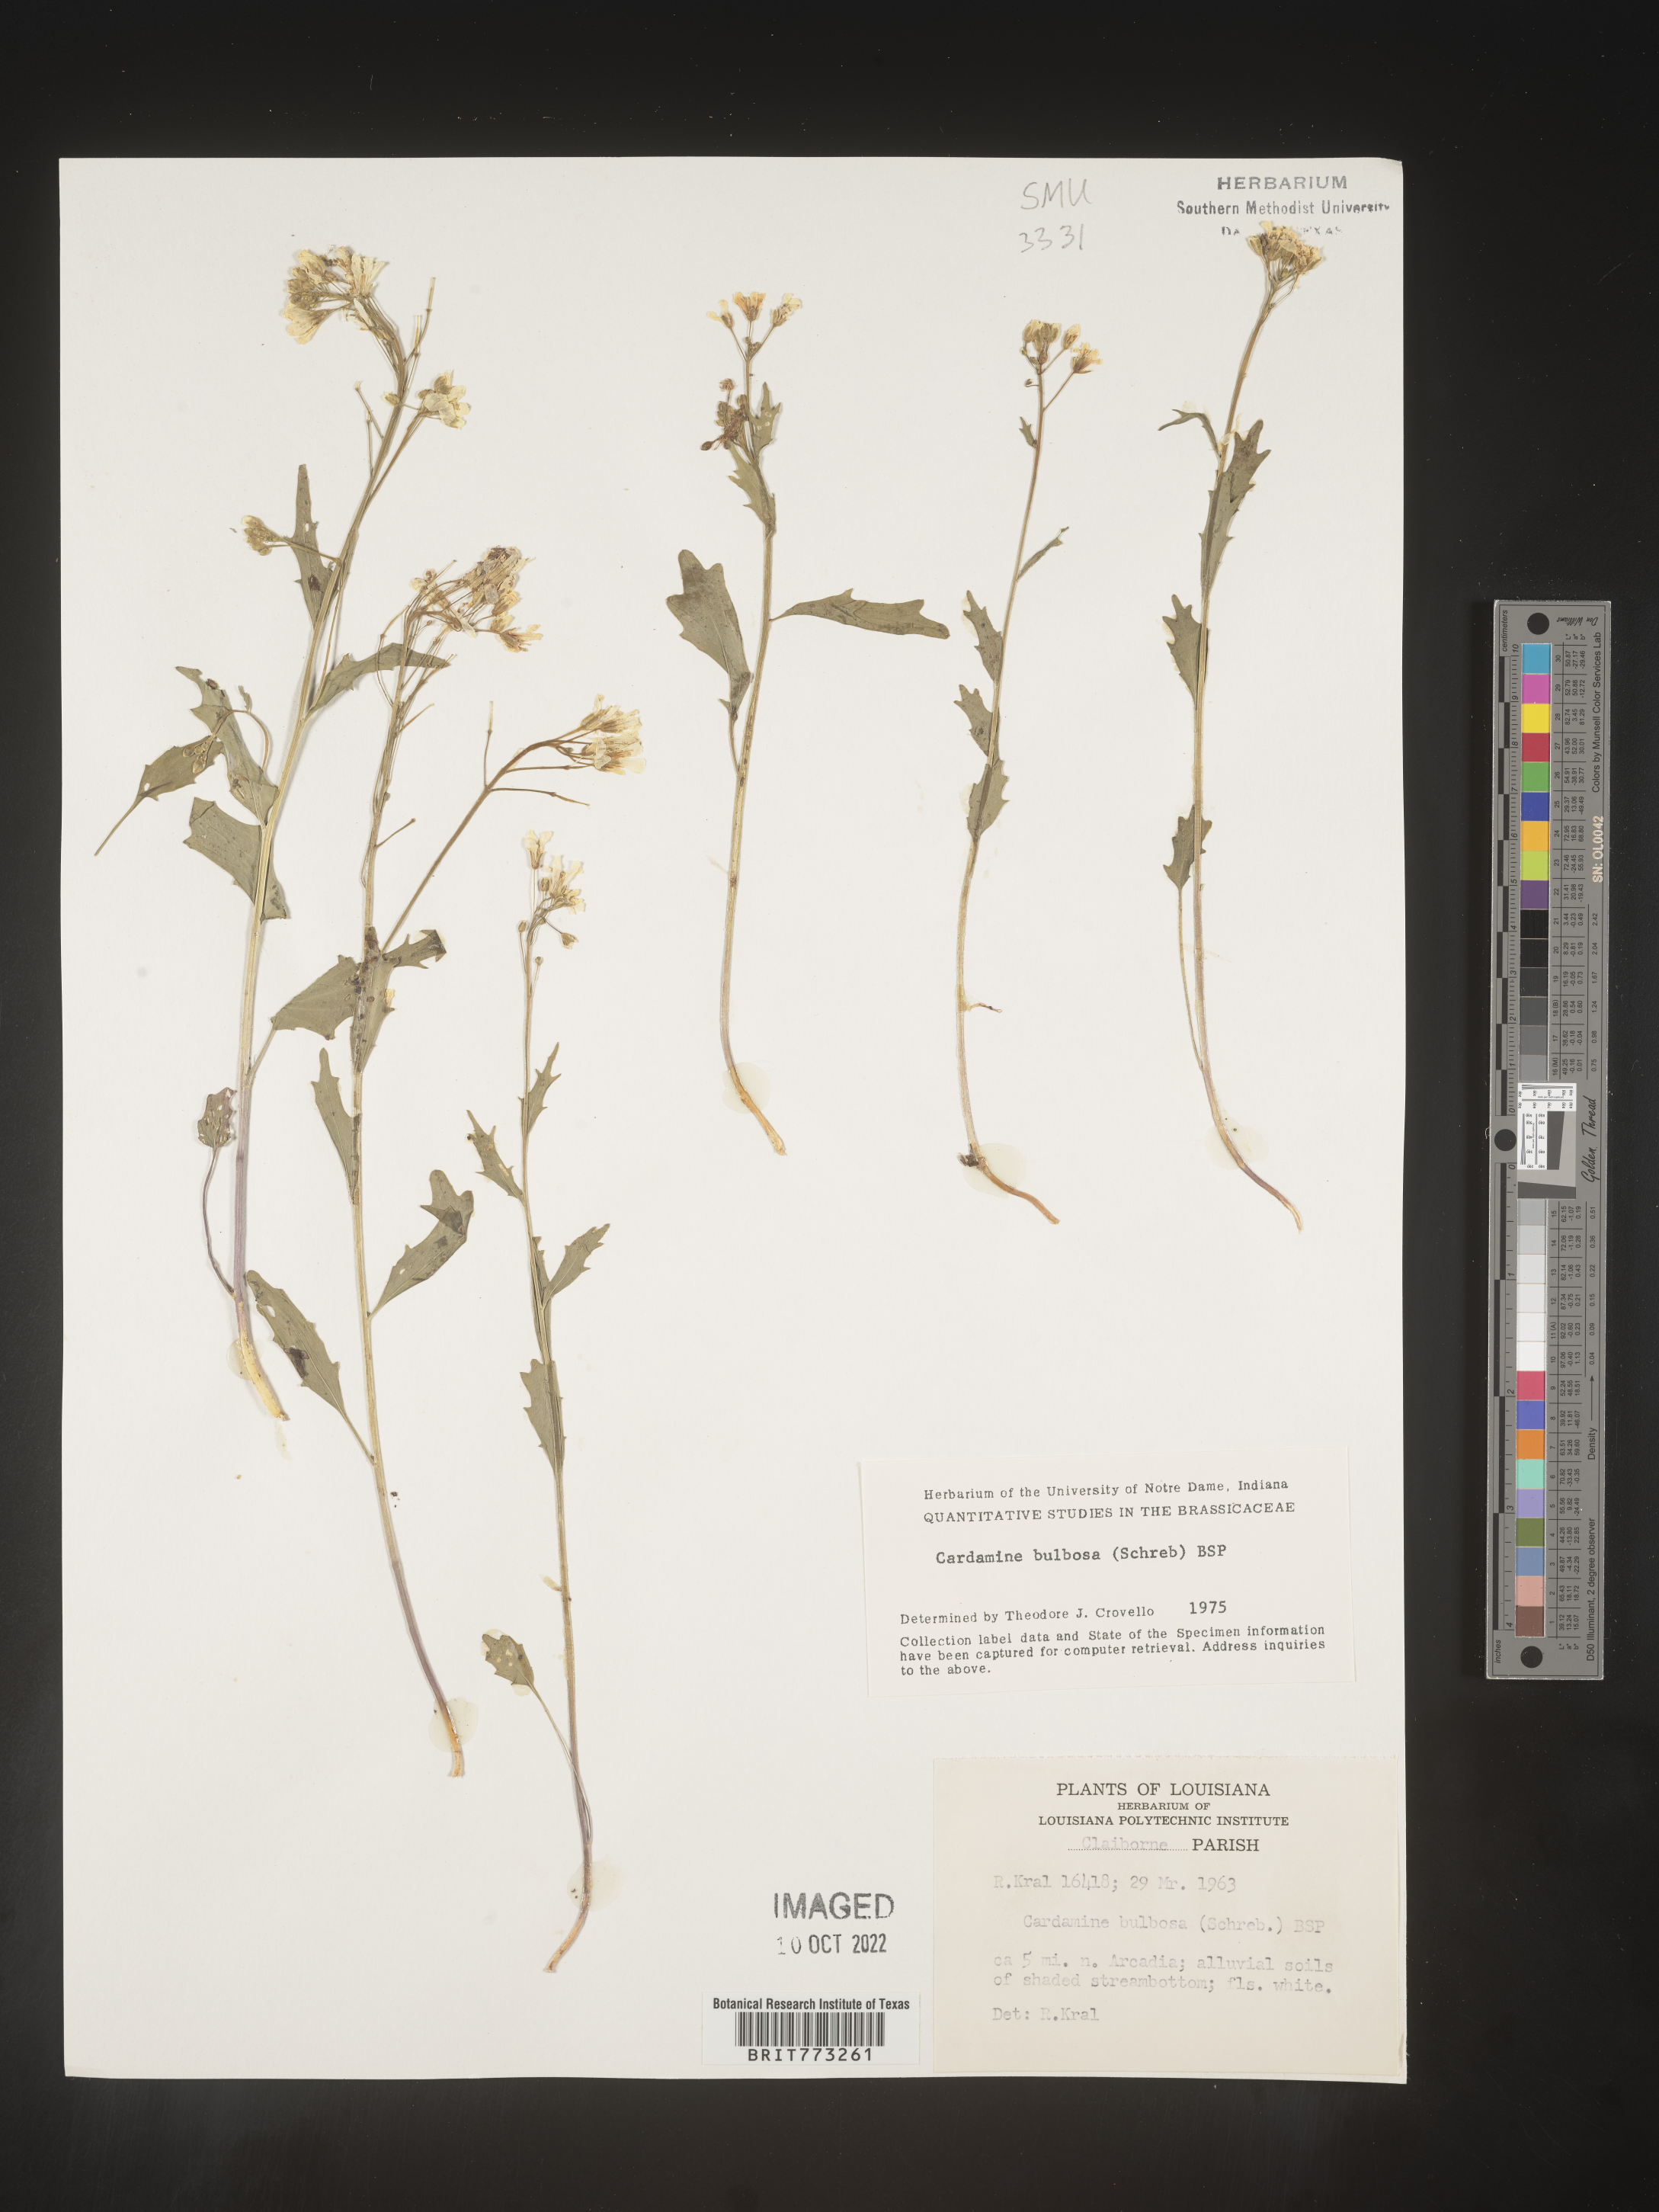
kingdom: Plantae
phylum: Tracheophyta
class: Magnoliopsida
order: Brassicales
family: Brassicaceae
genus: Cardamine
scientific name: Cardamine bulbosa
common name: Spring cress
